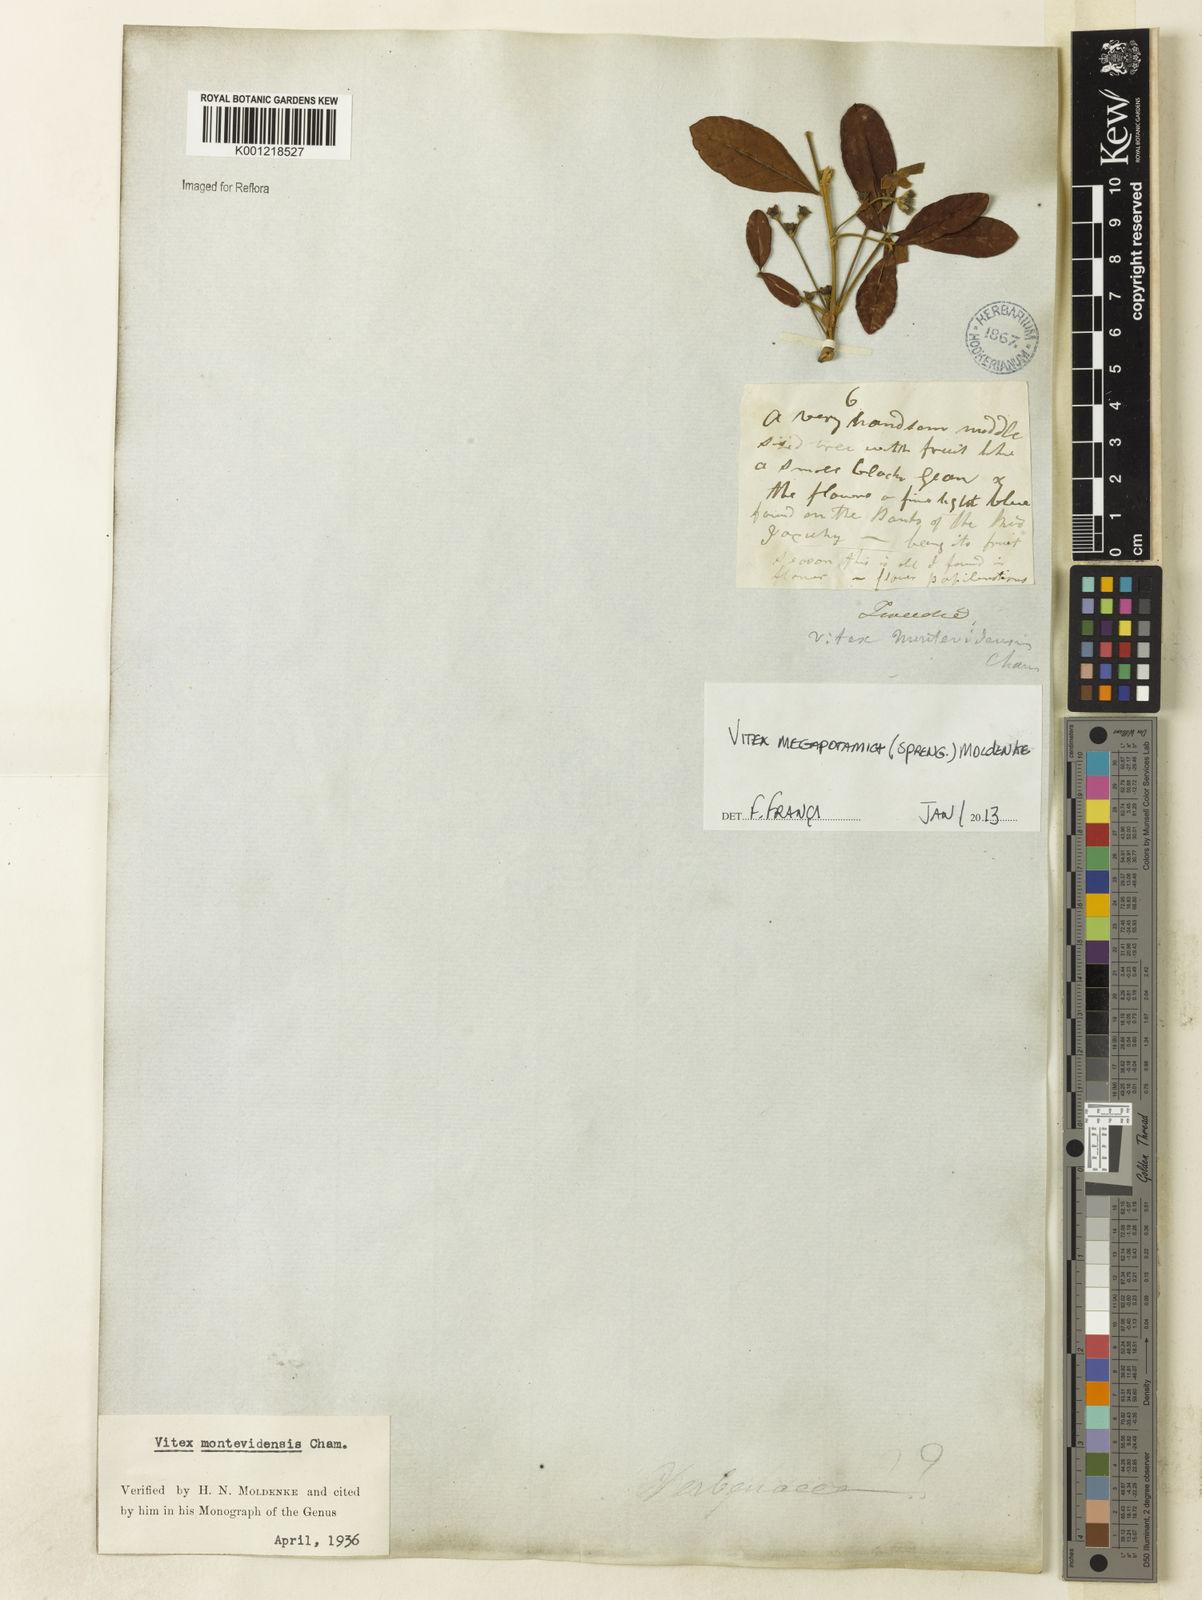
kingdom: Plantae
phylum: Tracheophyta
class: Magnoliopsida
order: Lamiales
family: Lamiaceae
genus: Vitex
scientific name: Vitex megapotamica
